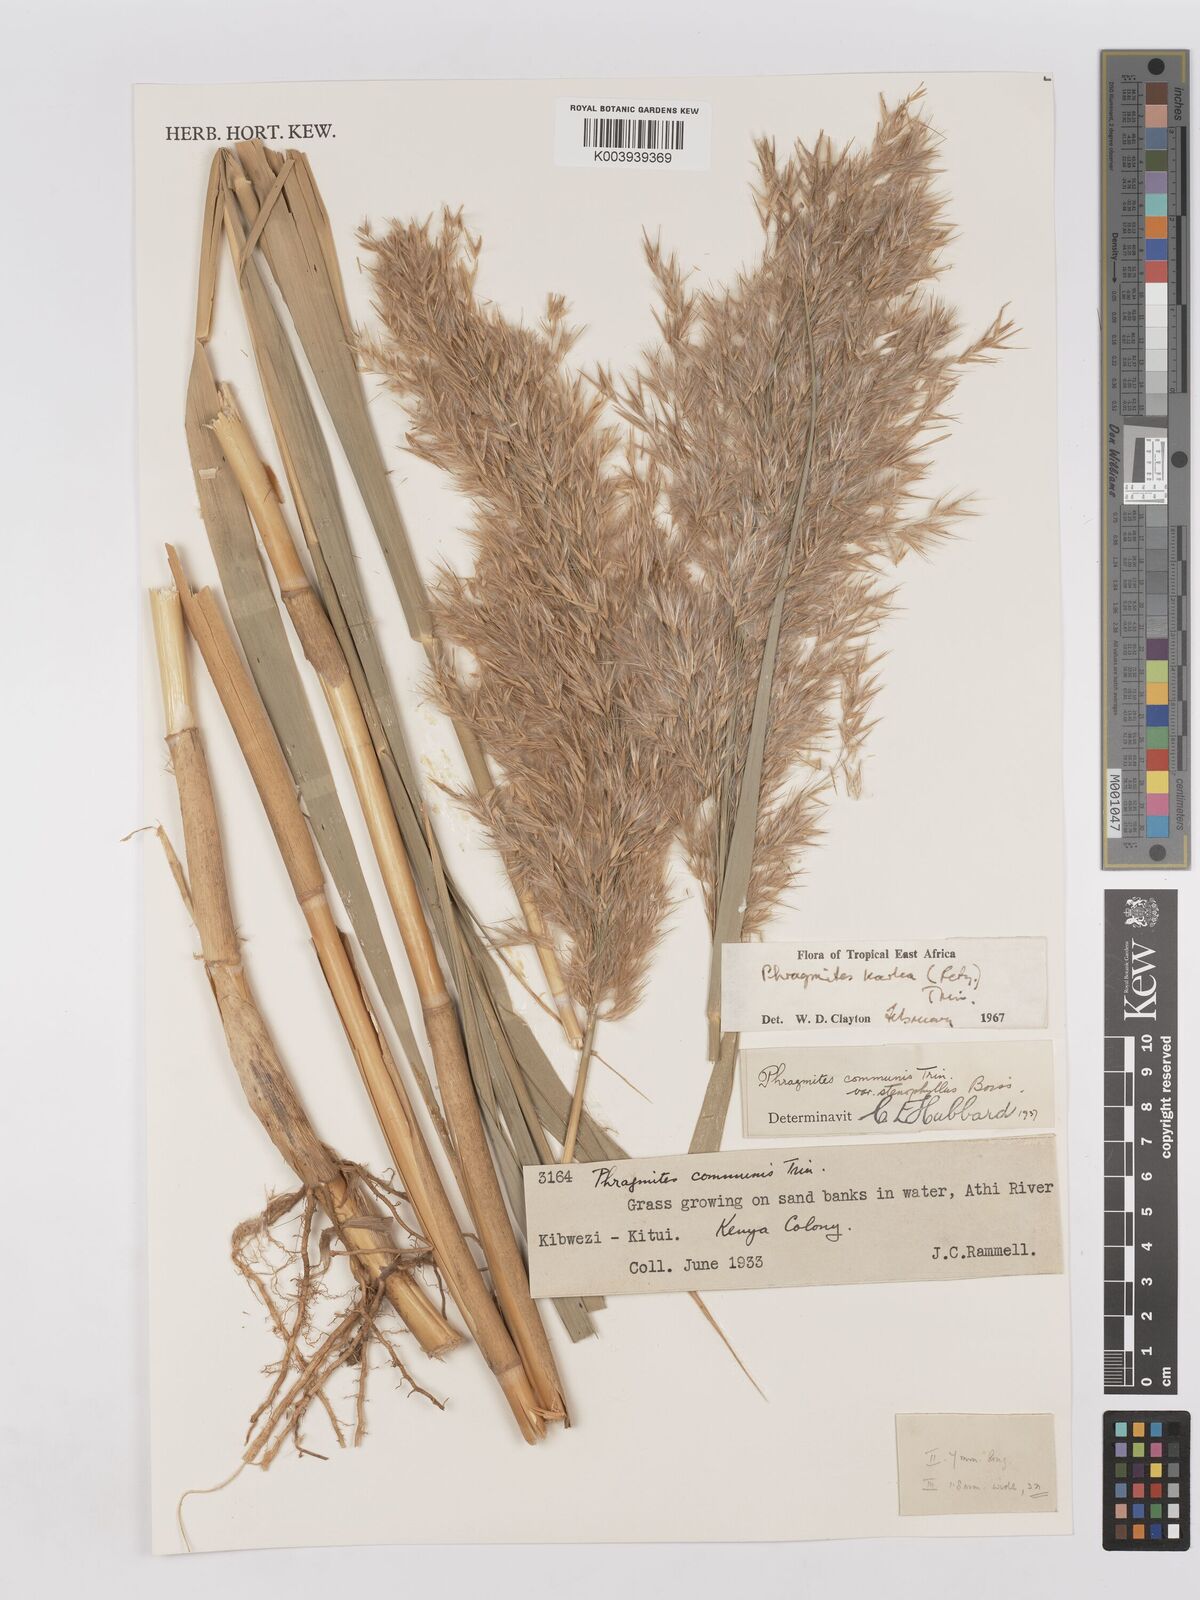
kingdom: Plantae
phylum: Tracheophyta
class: Liliopsida
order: Poales
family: Poaceae
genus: Phragmites
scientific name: Phragmites karka
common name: Tropical reed
